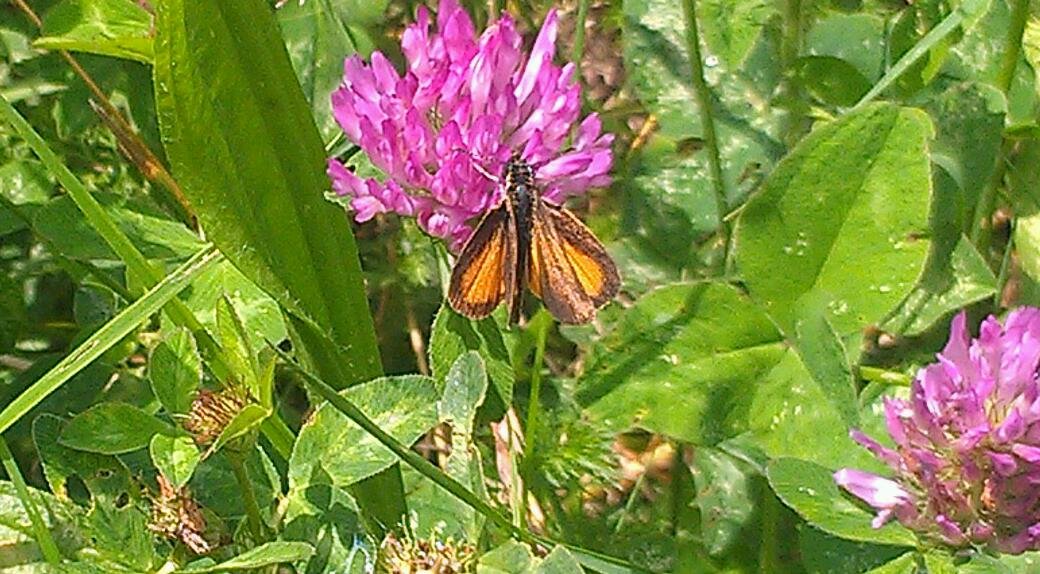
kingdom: Animalia
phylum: Arthropoda
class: Insecta
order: Lepidoptera
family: Hesperiidae
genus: Ancyloxypha
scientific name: Ancyloxypha numitor
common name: Least Skipper
